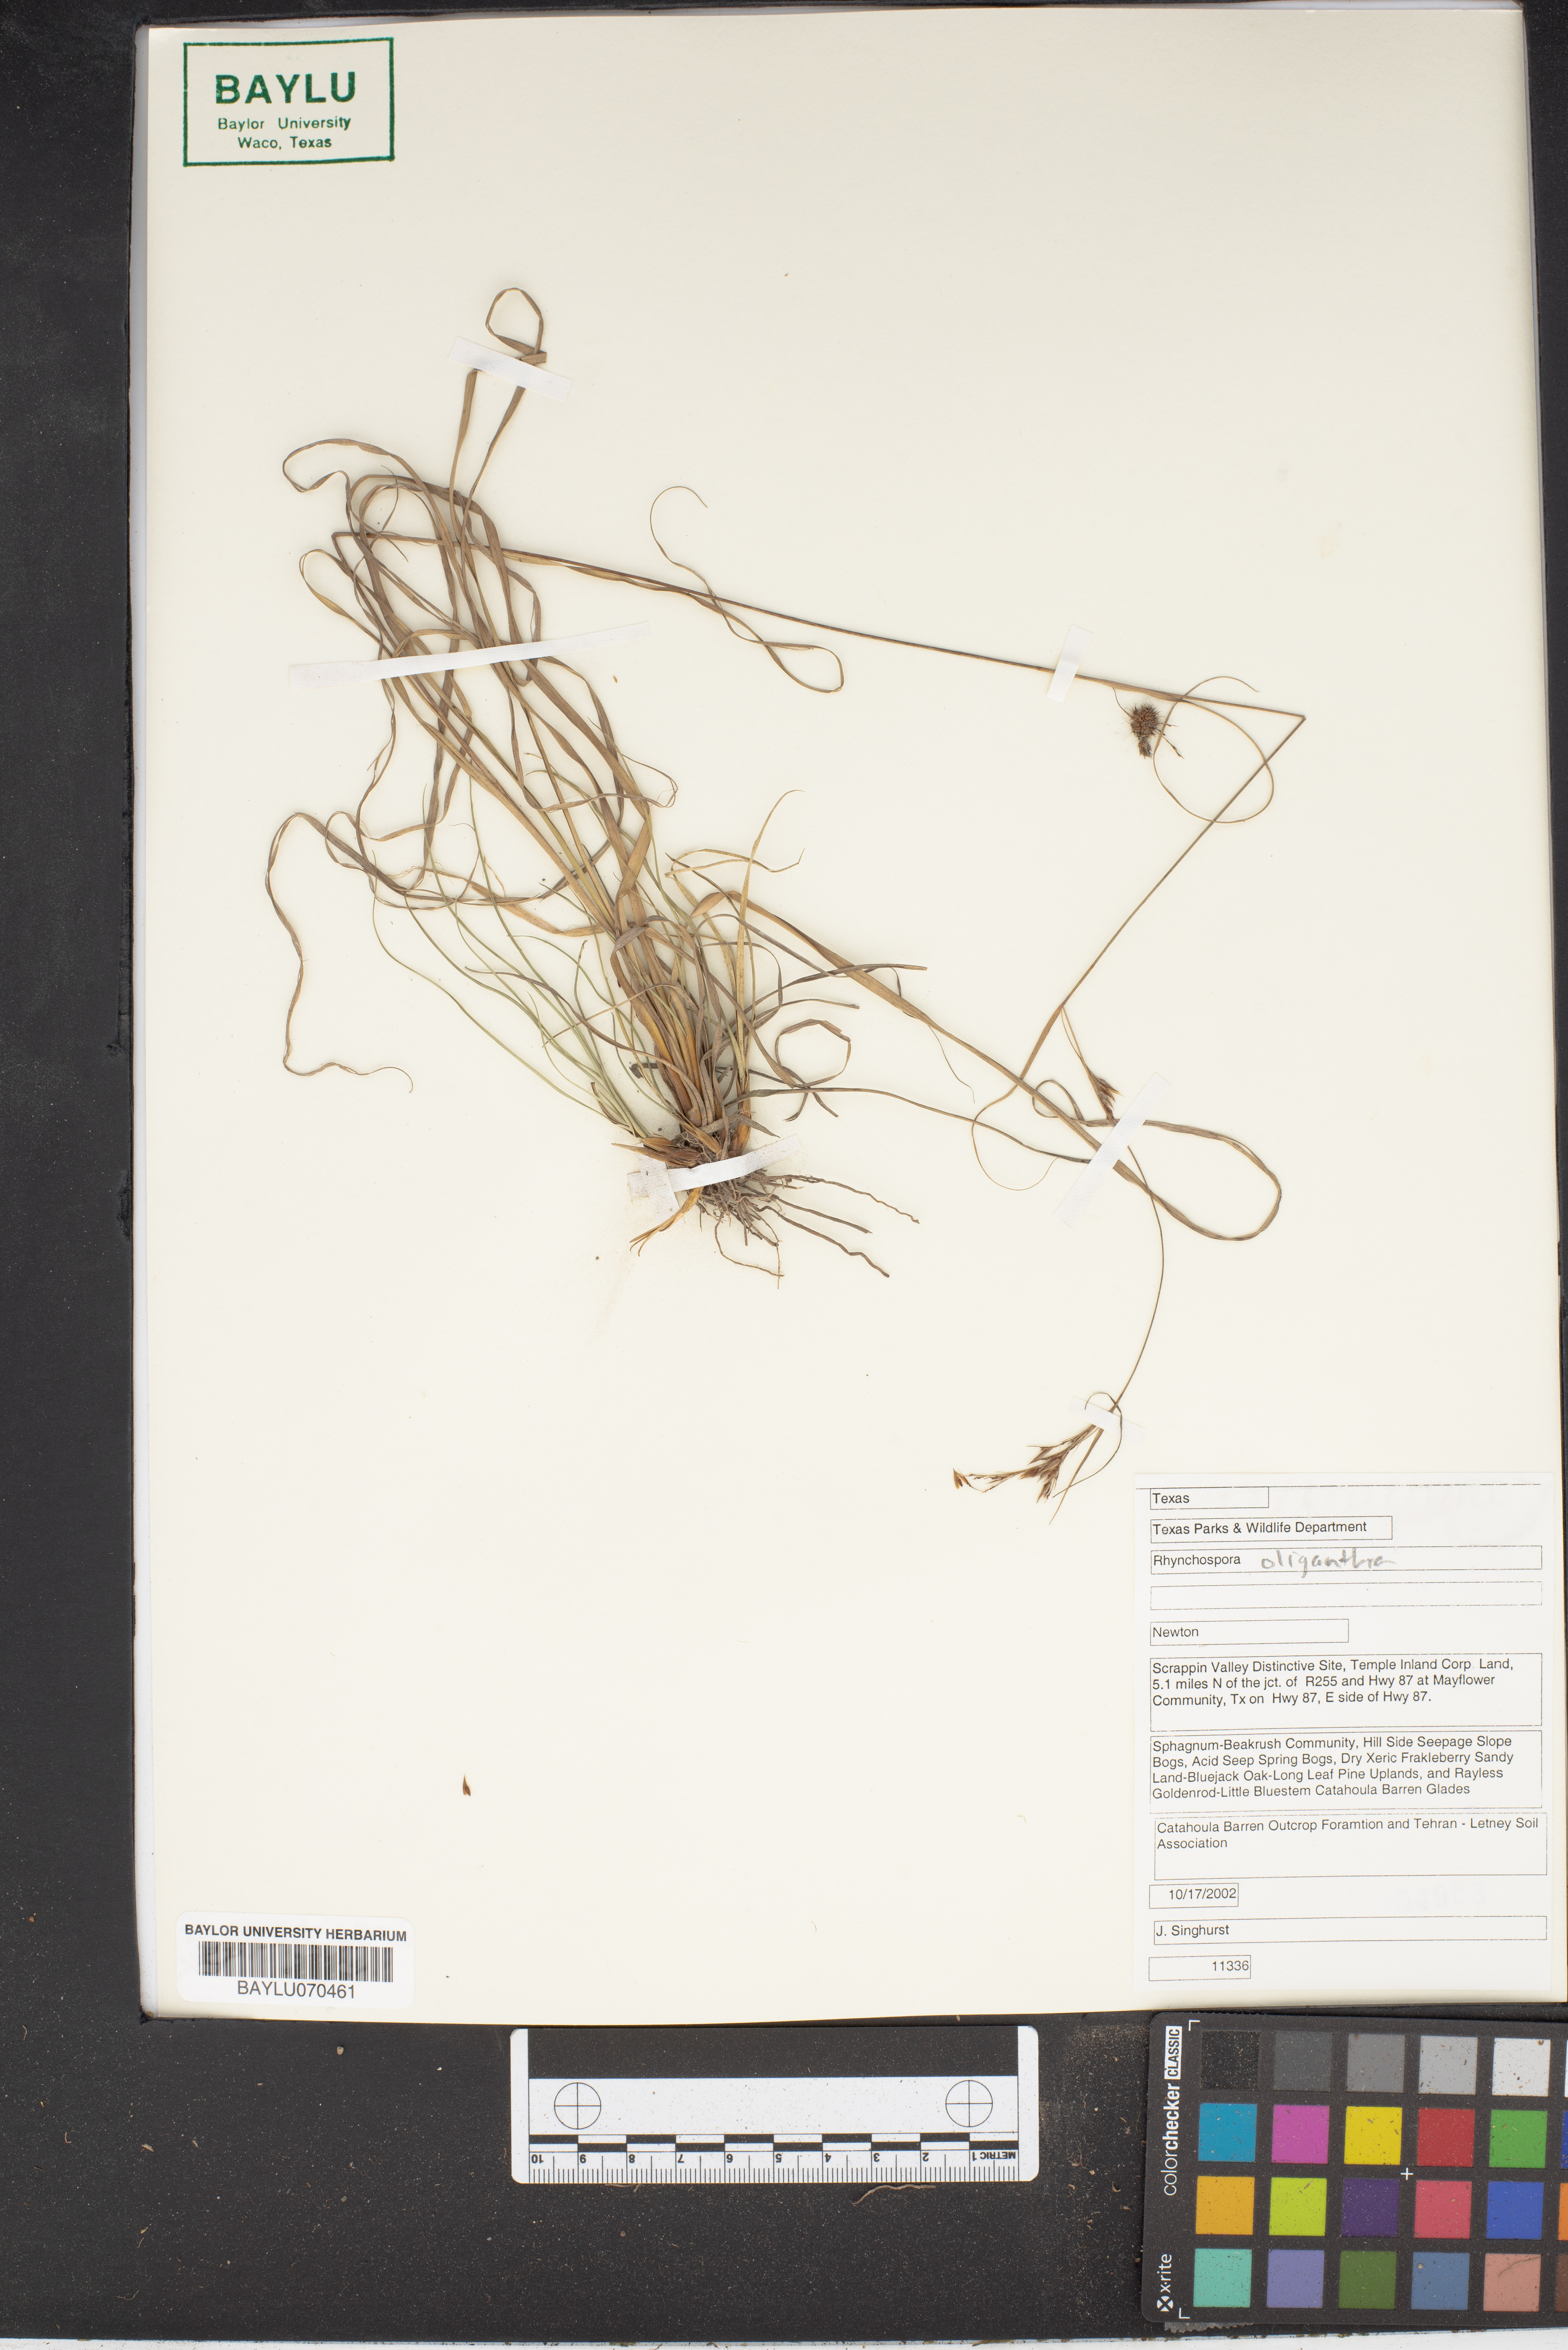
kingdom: Plantae
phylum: Tracheophyta
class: Liliopsida
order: Poales
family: Cyperaceae
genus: Rhynchospora
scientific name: Rhynchospora oligantha
